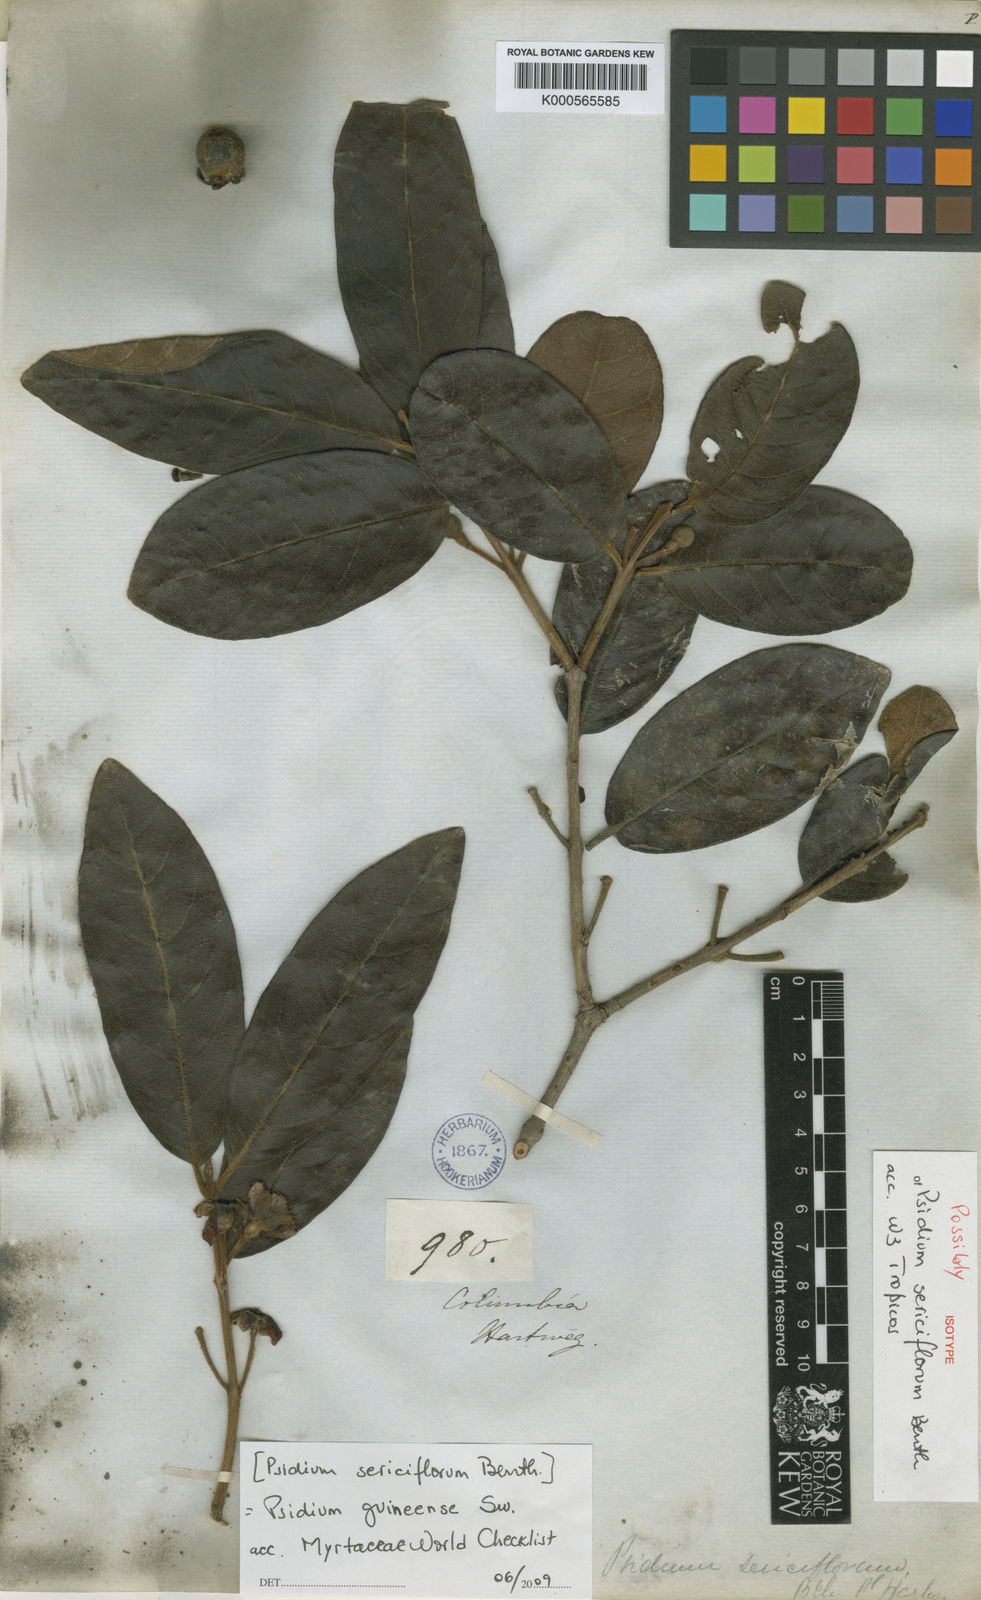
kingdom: Plantae
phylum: Tracheophyta
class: Magnoliopsida
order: Myrtales
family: Myrtaceae
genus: Psidium
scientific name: Psidium guineense
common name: Brazilian guava
